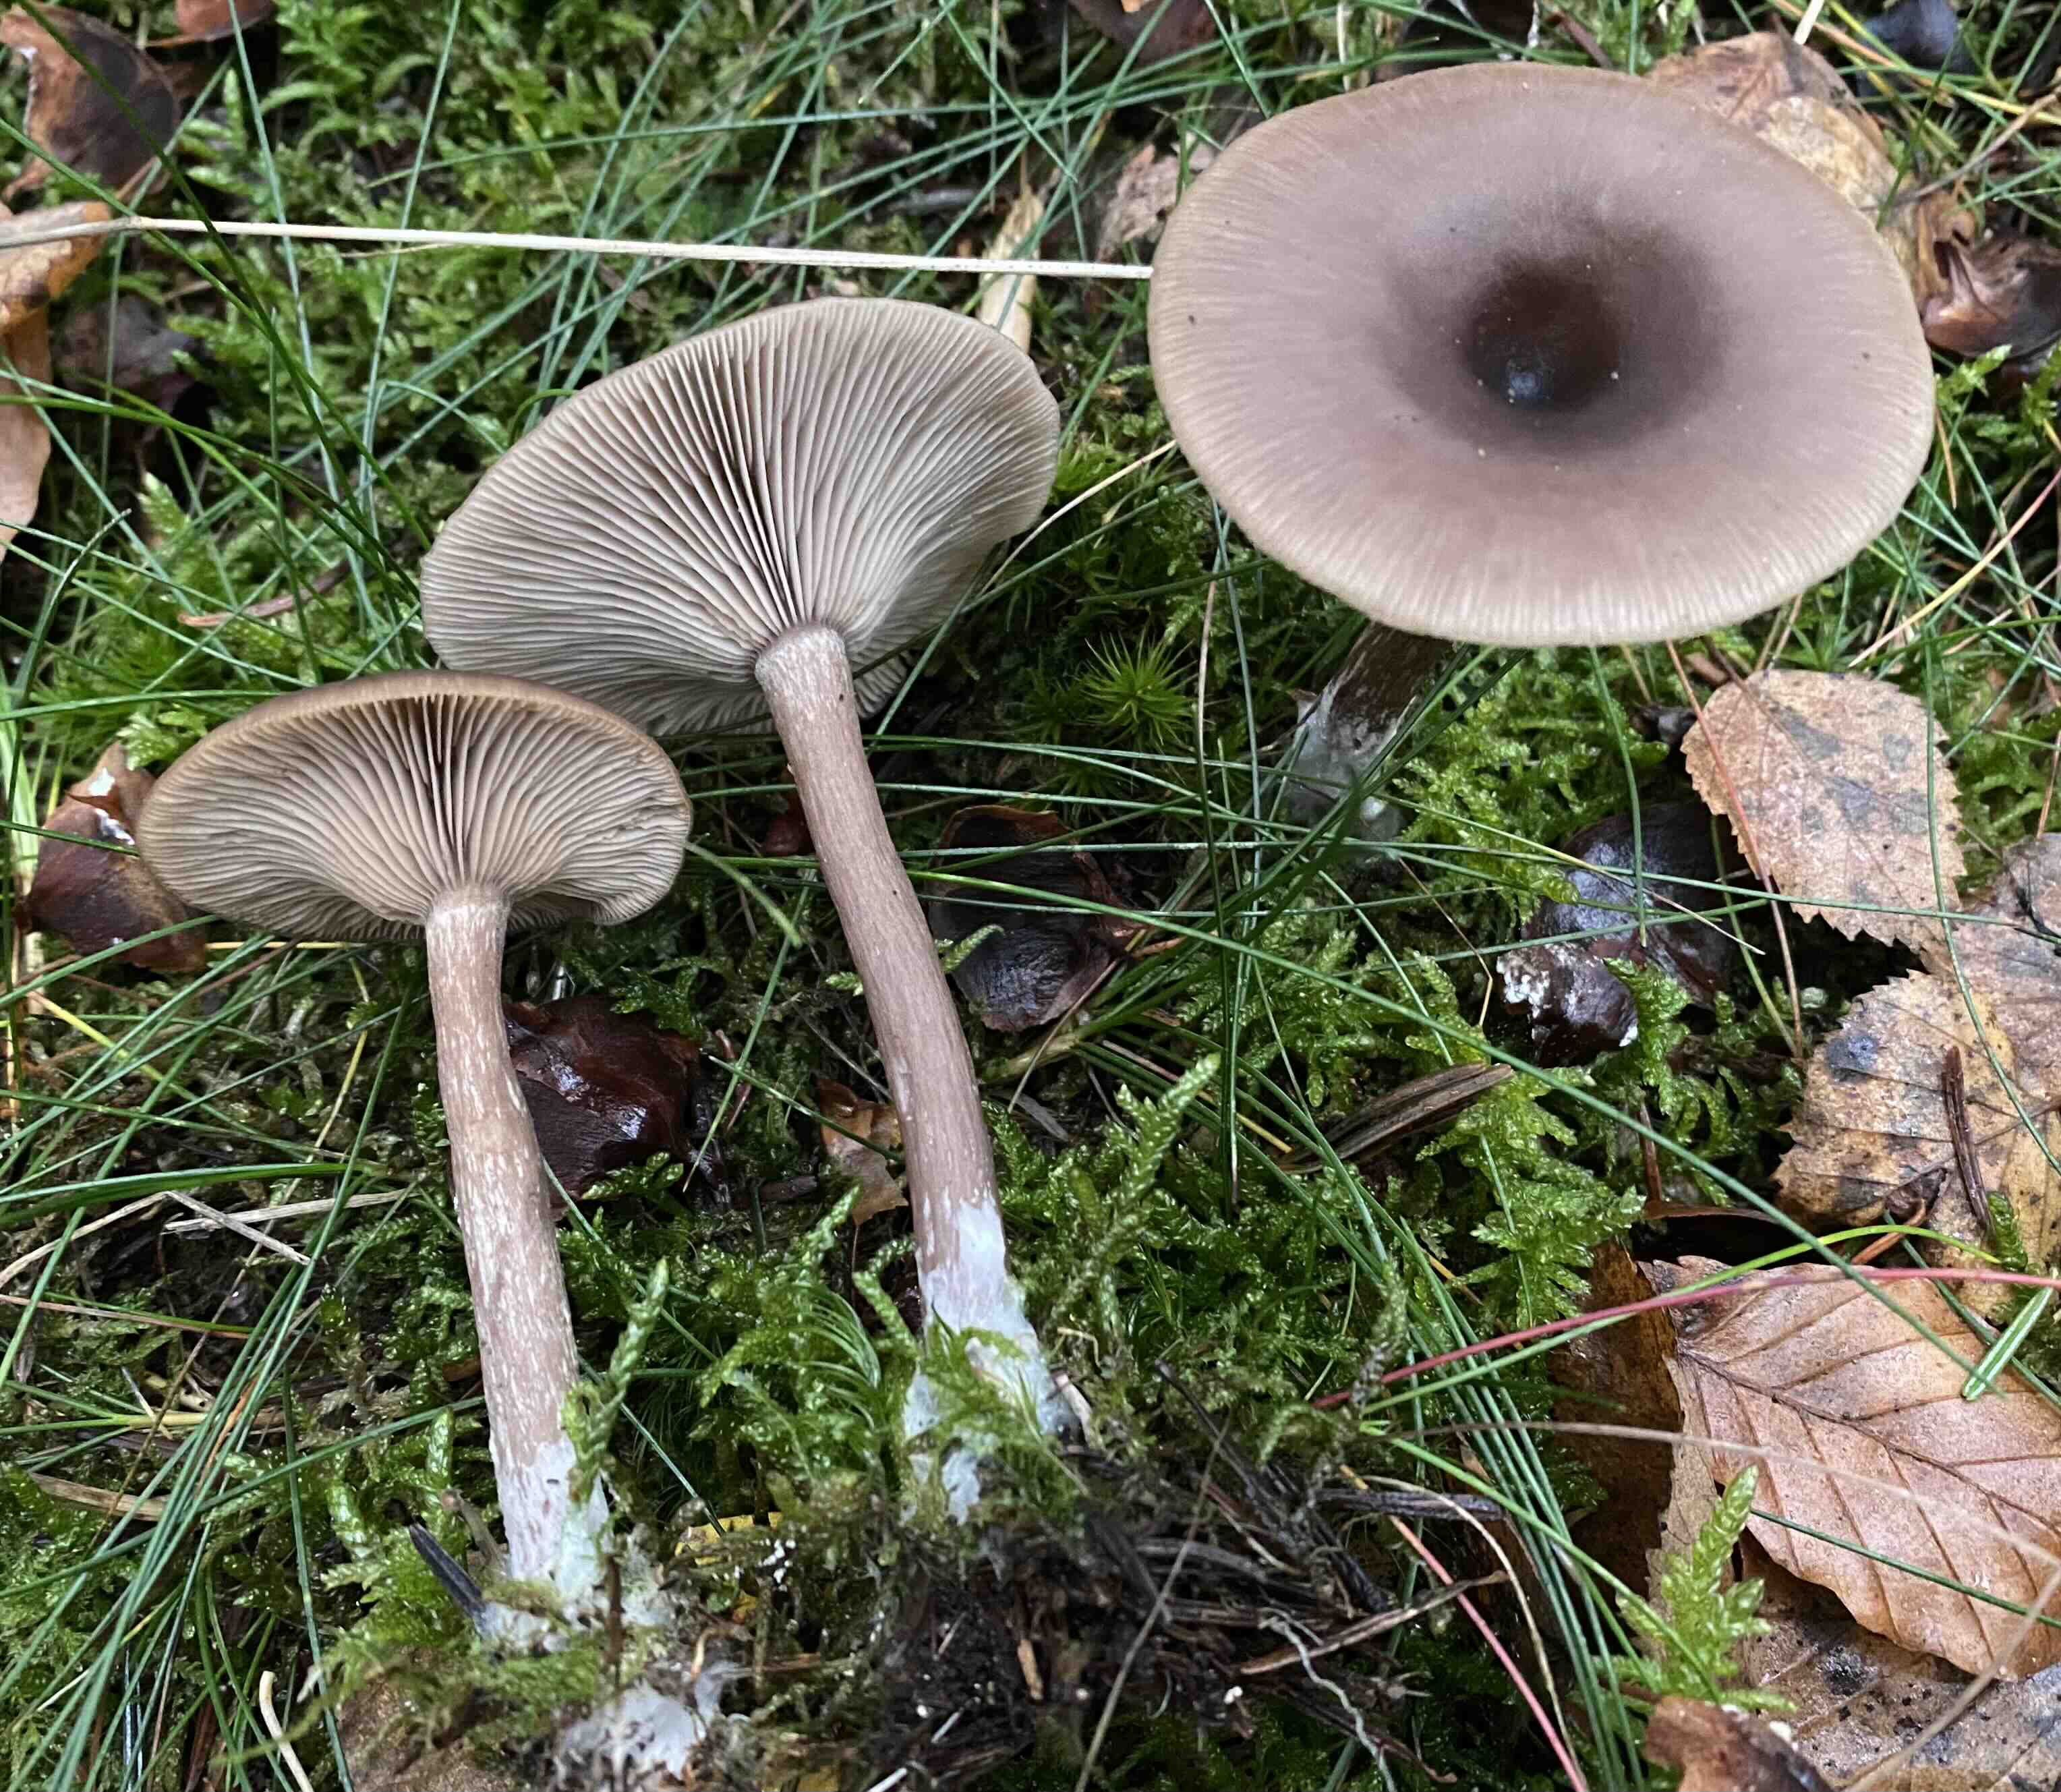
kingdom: Fungi
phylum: Basidiomycota
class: Agaricomycetes
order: Agaricales
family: Pseudoclitocybaceae
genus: Pseudoclitocybe
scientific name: Pseudoclitocybe cyathiformis
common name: almindelig bægertragthat
